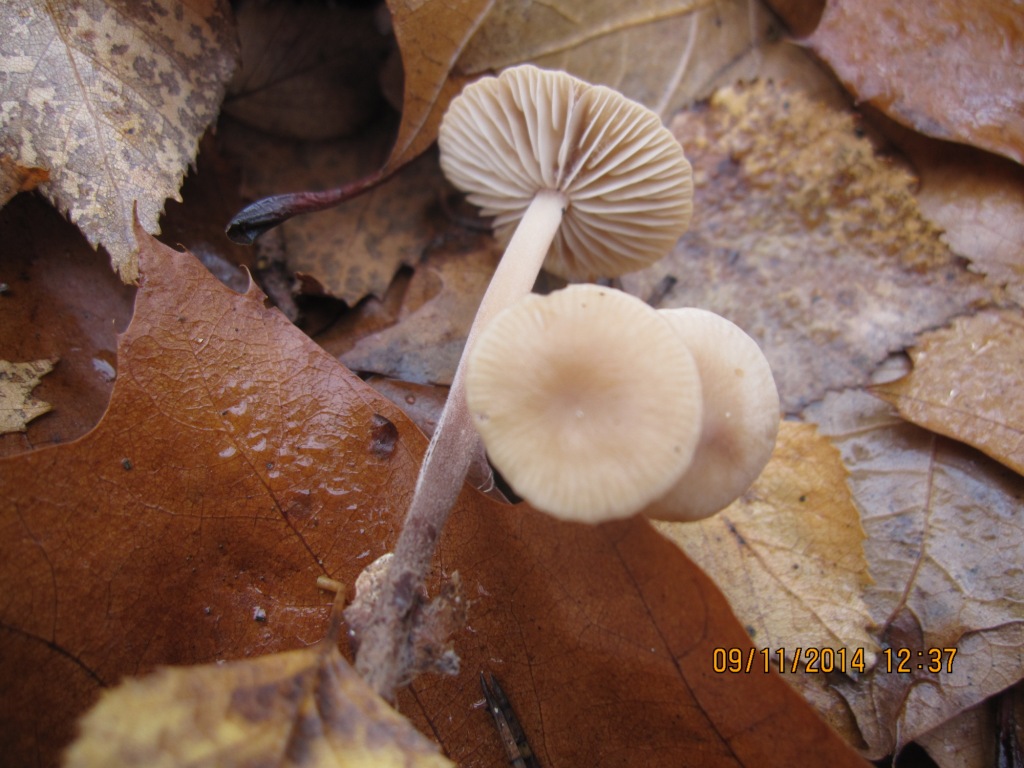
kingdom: Fungi
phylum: Basidiomycota
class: Agaricomycetes
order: Agaricales
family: Omphalotaceae
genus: Mycetinis
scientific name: Mycetinis querceus
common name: ege-løghat
